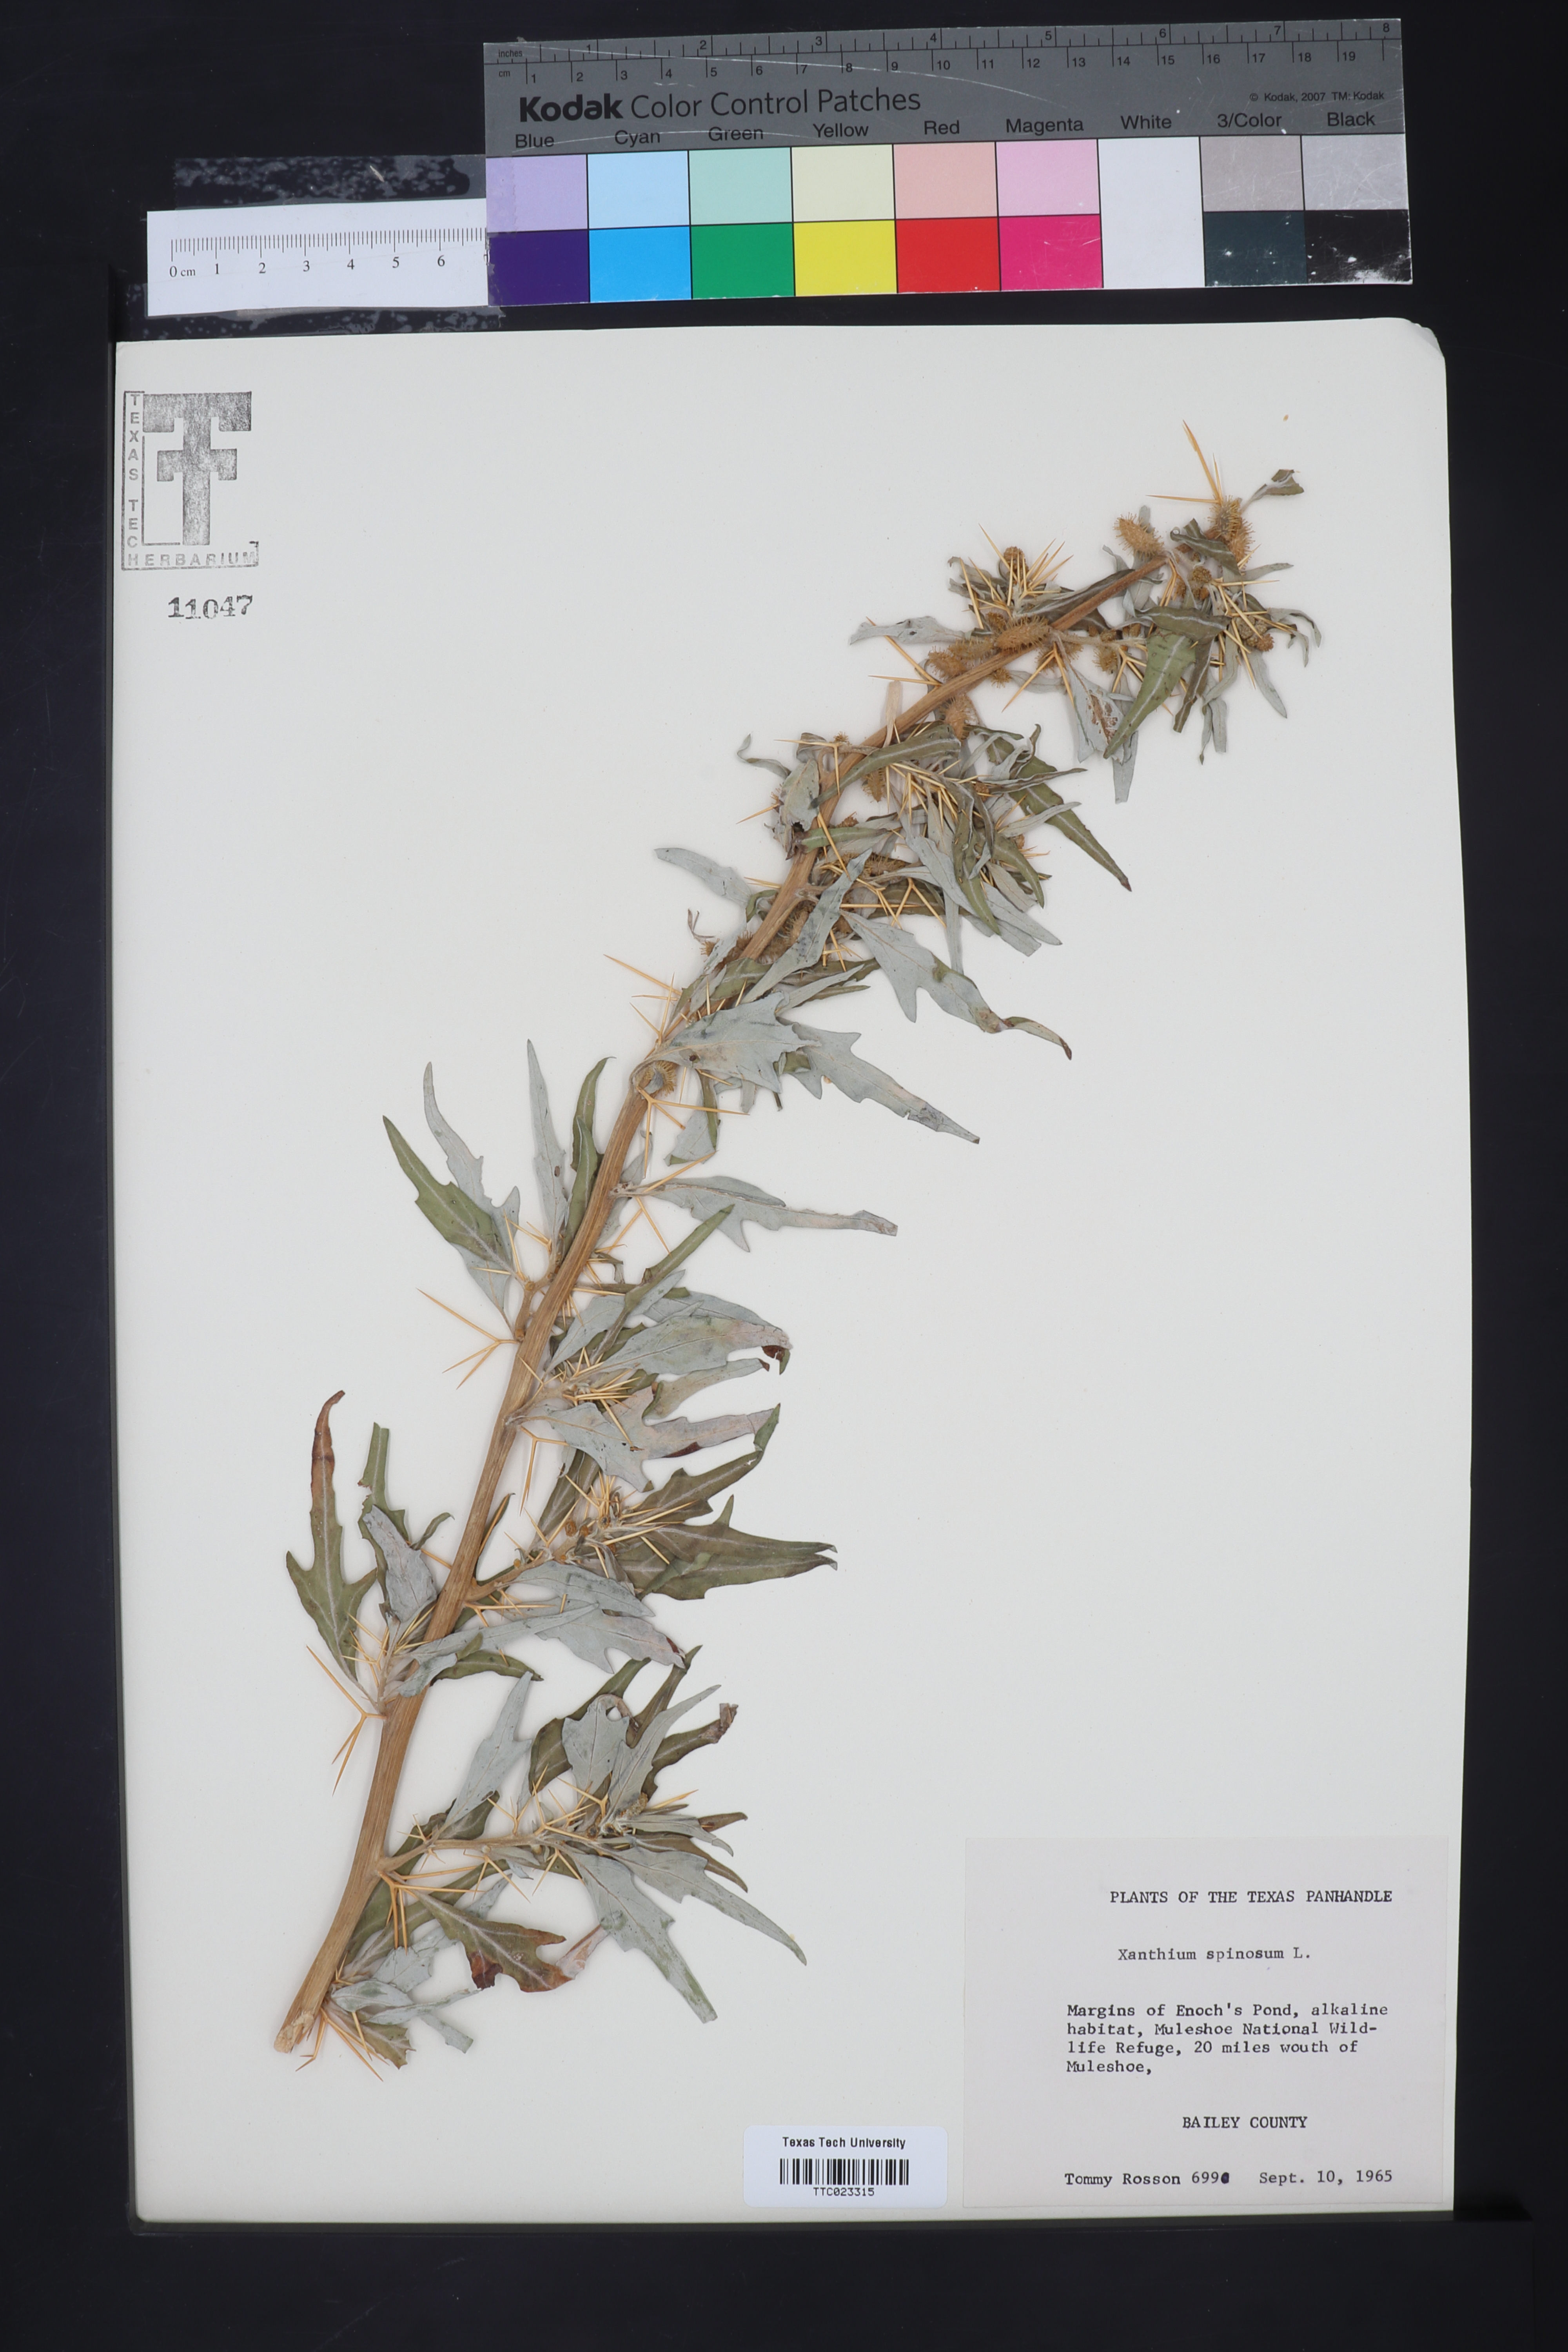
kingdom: Plantae
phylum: Tracheophyta
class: Magnoliopsida
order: Asterales
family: Asteraceae
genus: Xanthium
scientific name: Xanthium spinosum
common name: Spiny cocklebur
